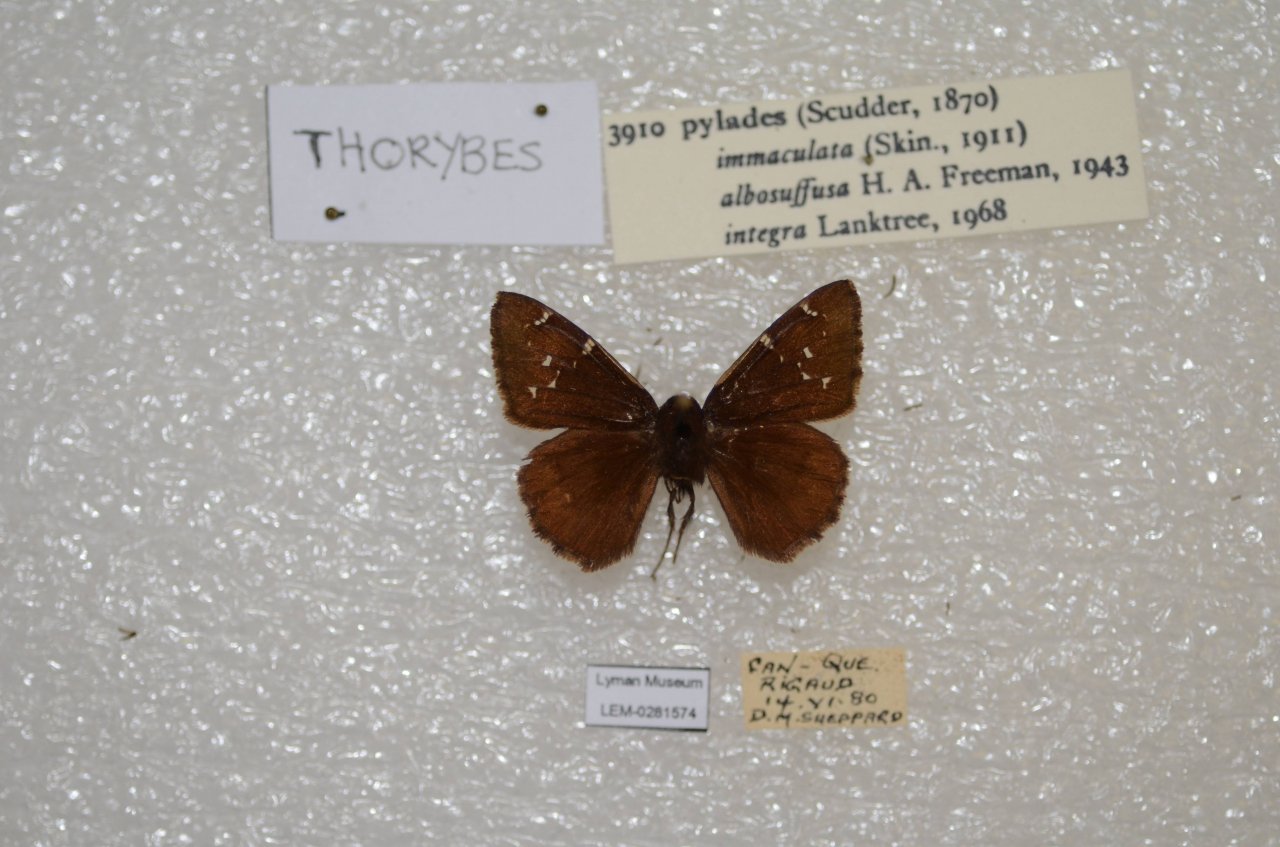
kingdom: Animalia
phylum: Arthropoda
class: Insecta
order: Lepidoptera
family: Hesperiidae
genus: Autochton
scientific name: Autochton
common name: Northern Cloudywing
